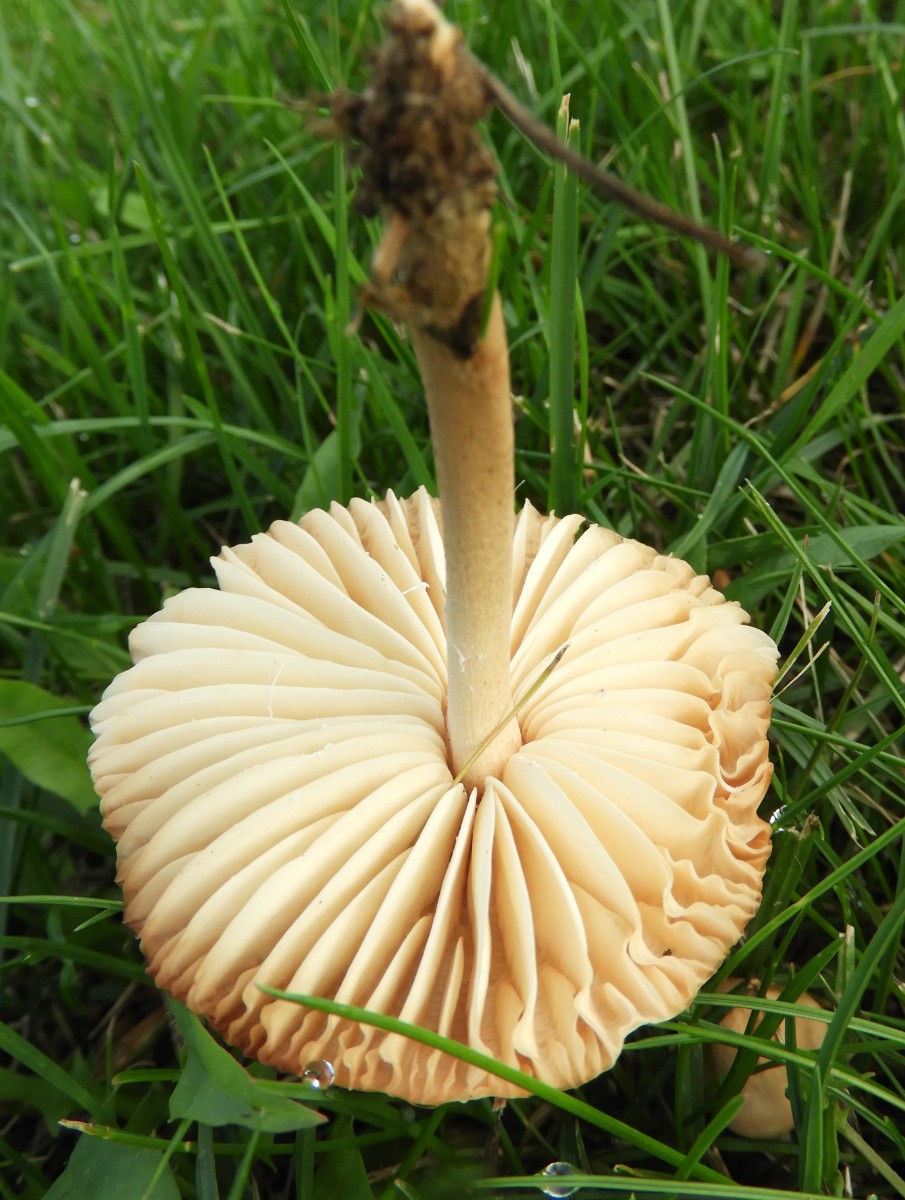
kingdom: Fungi
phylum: Basidiomycota
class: Agaricomycetes
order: Agaricales
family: Marasmiaceae
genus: Marasmius
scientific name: Marasmius oreades
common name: elledans-bruskhat
